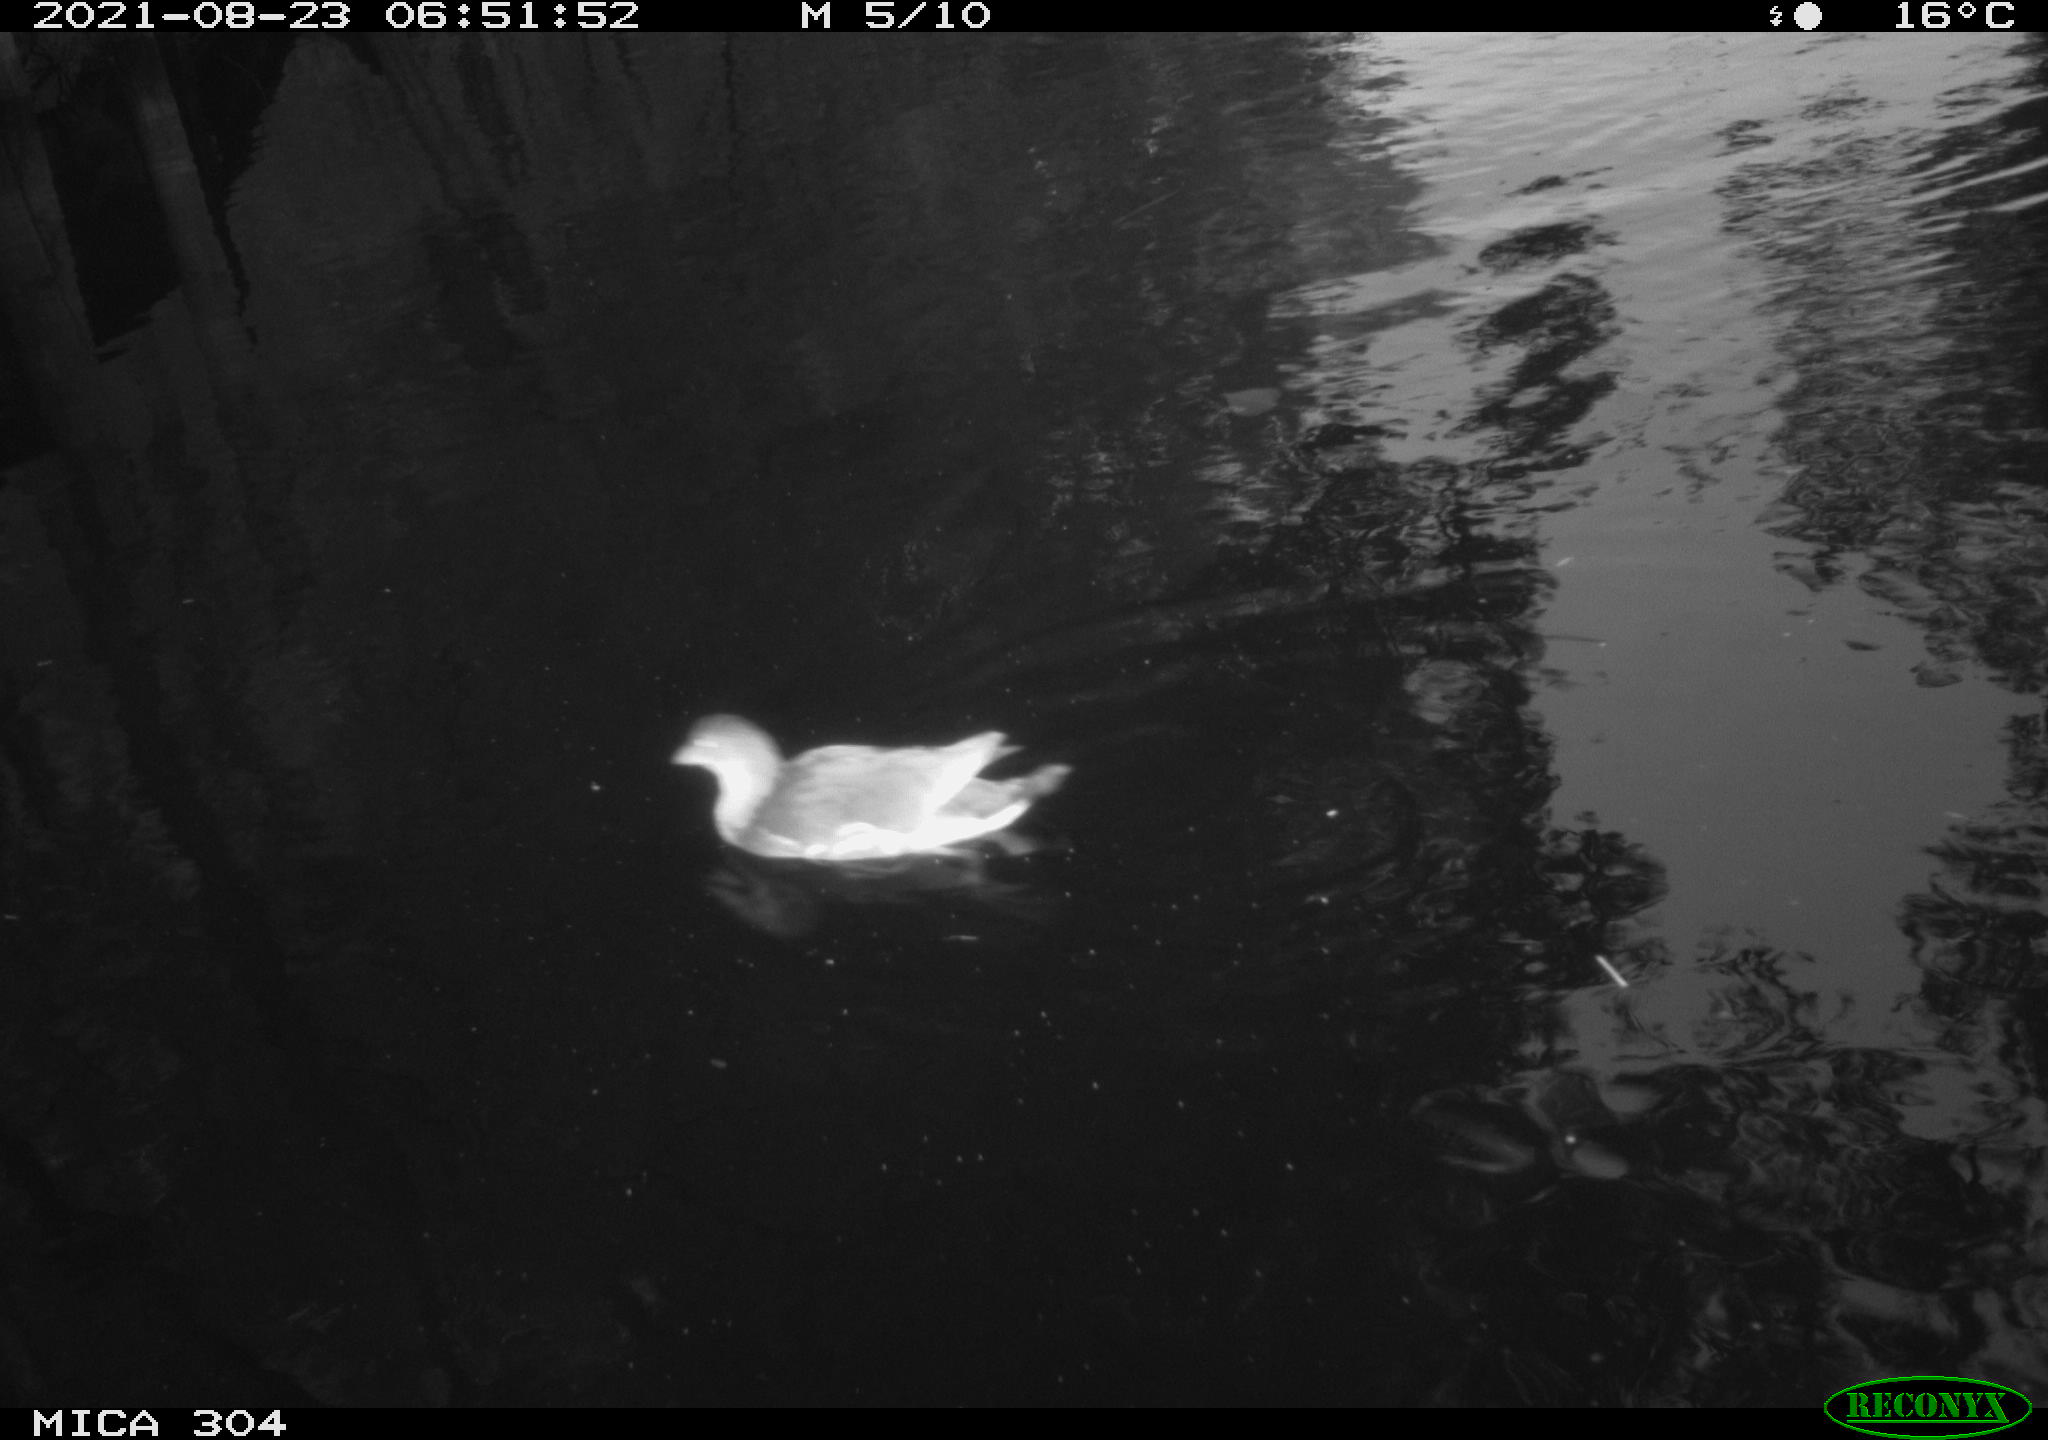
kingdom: Animalia
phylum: Chordata
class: Aves
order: Gruiformes
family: Rallidae
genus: Gallinula
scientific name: Gallinula chloropus
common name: Common moorhen
